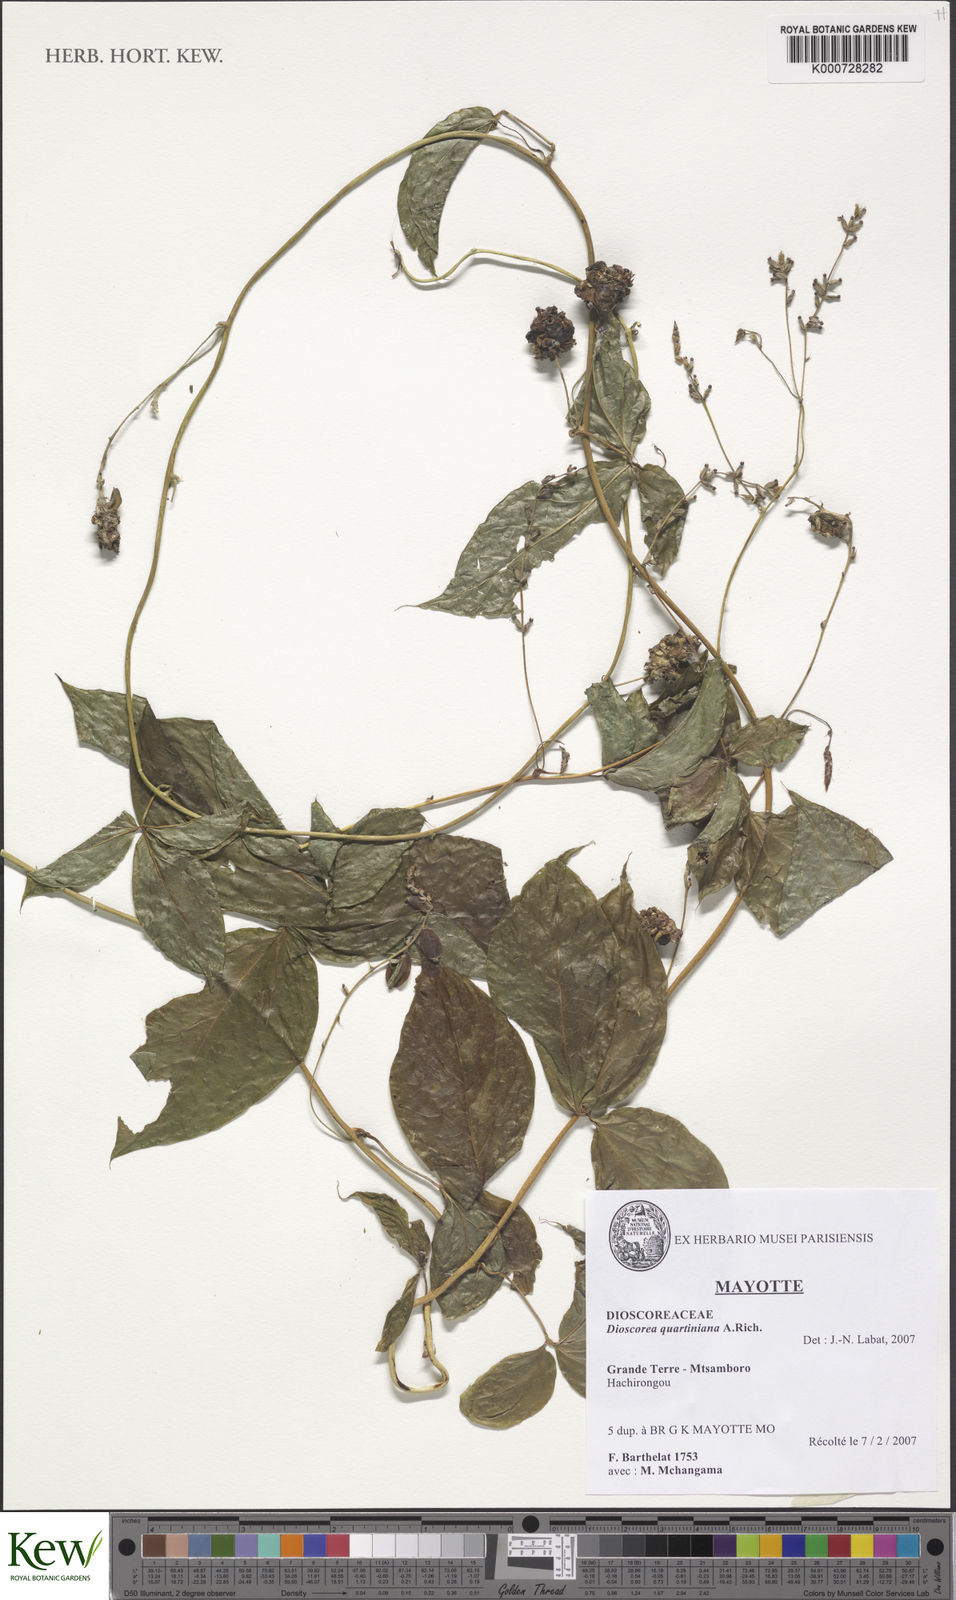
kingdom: Plantae
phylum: Tracheophyta
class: Liliopsida
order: Dioscoreales
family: Dioscoreaceae
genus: Dioscorea
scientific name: Dioscorea quartiniana
